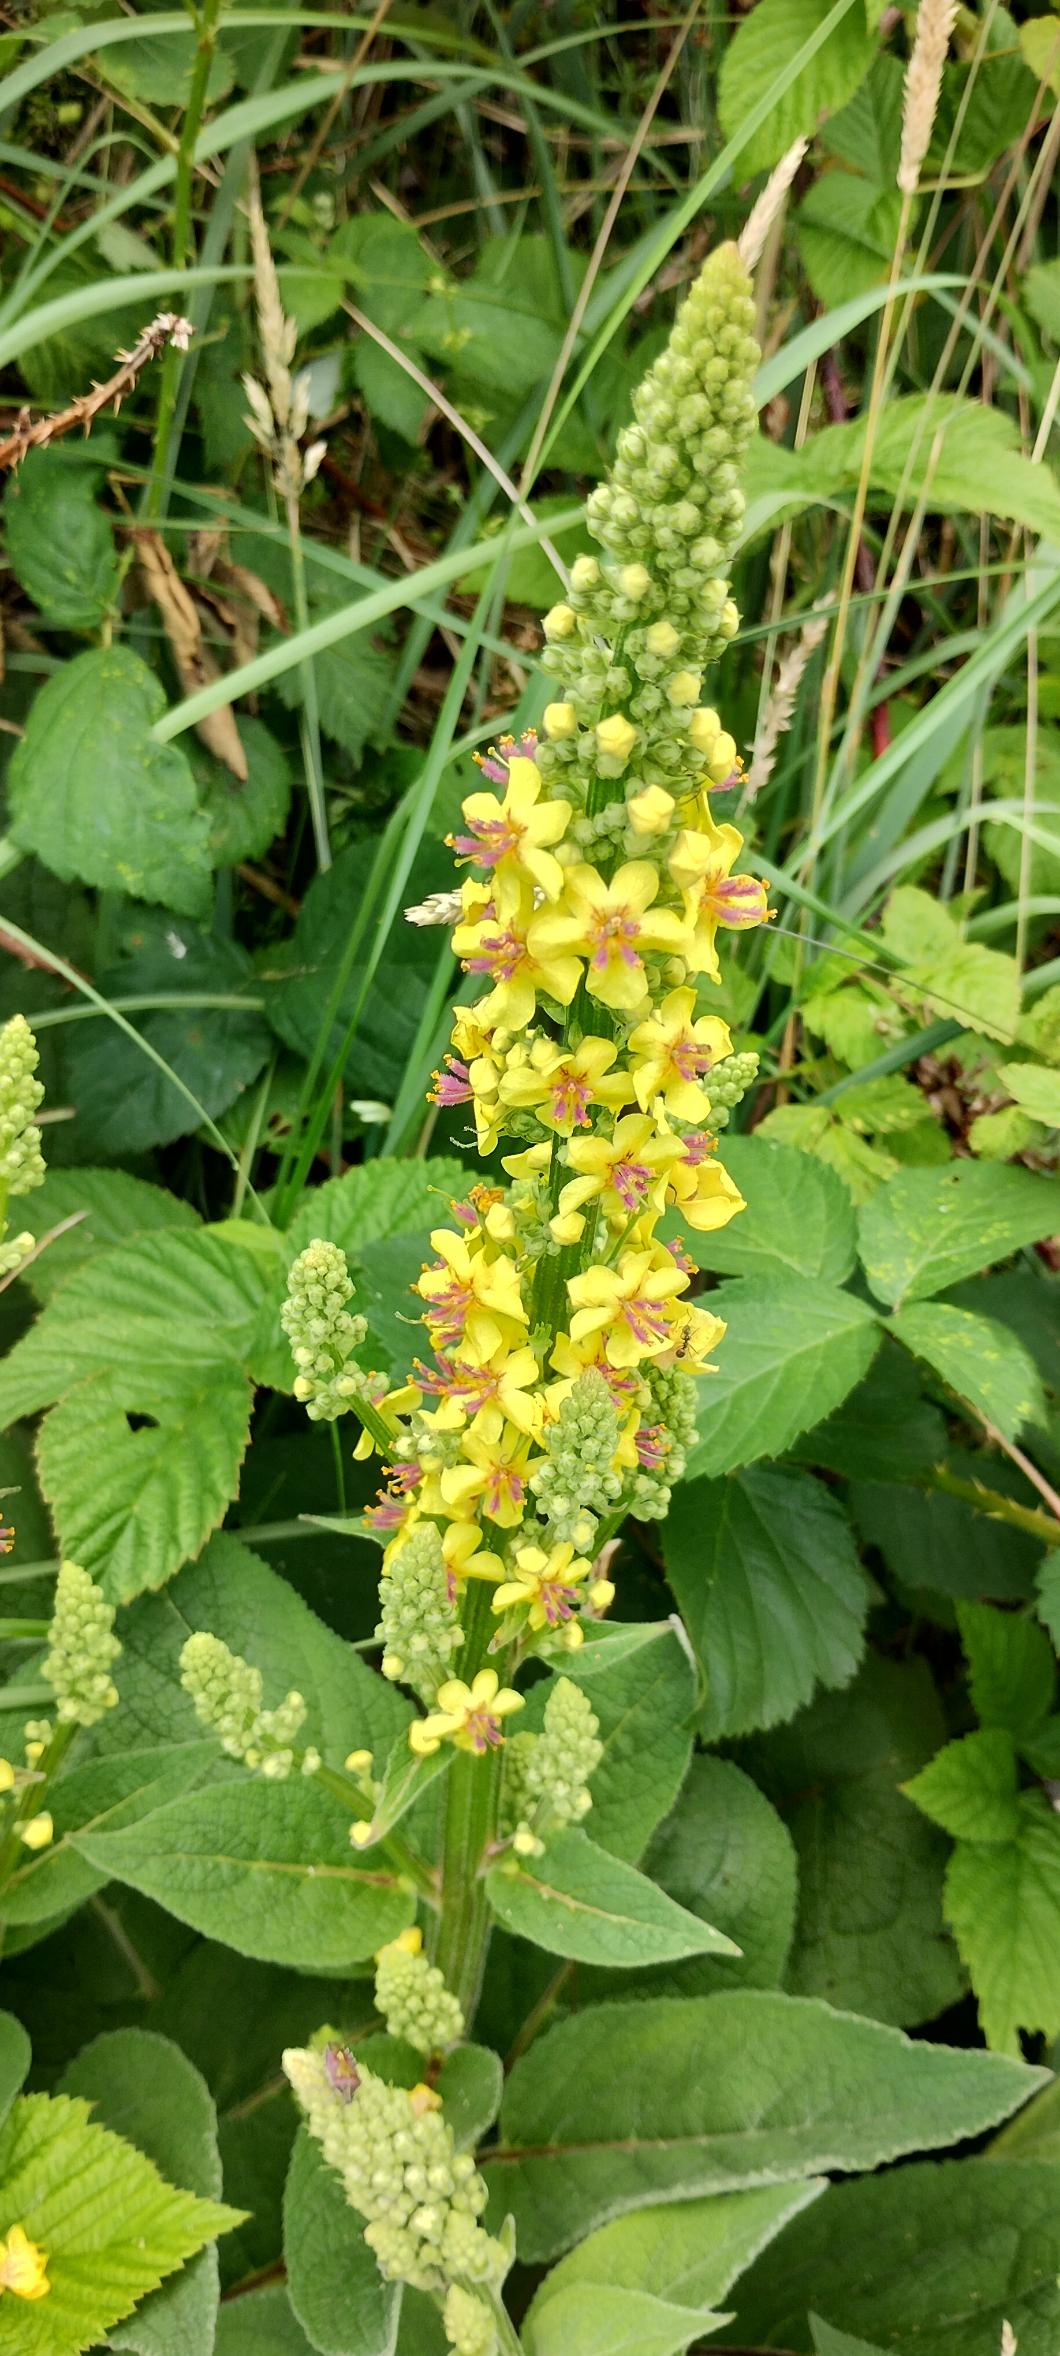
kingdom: Plantae
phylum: Tracheophyta
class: Magnoliopsida
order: Lamiales
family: Scrophulariaceae
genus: Verbascum
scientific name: Verbascum nigrum
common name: Mørk kongelys
